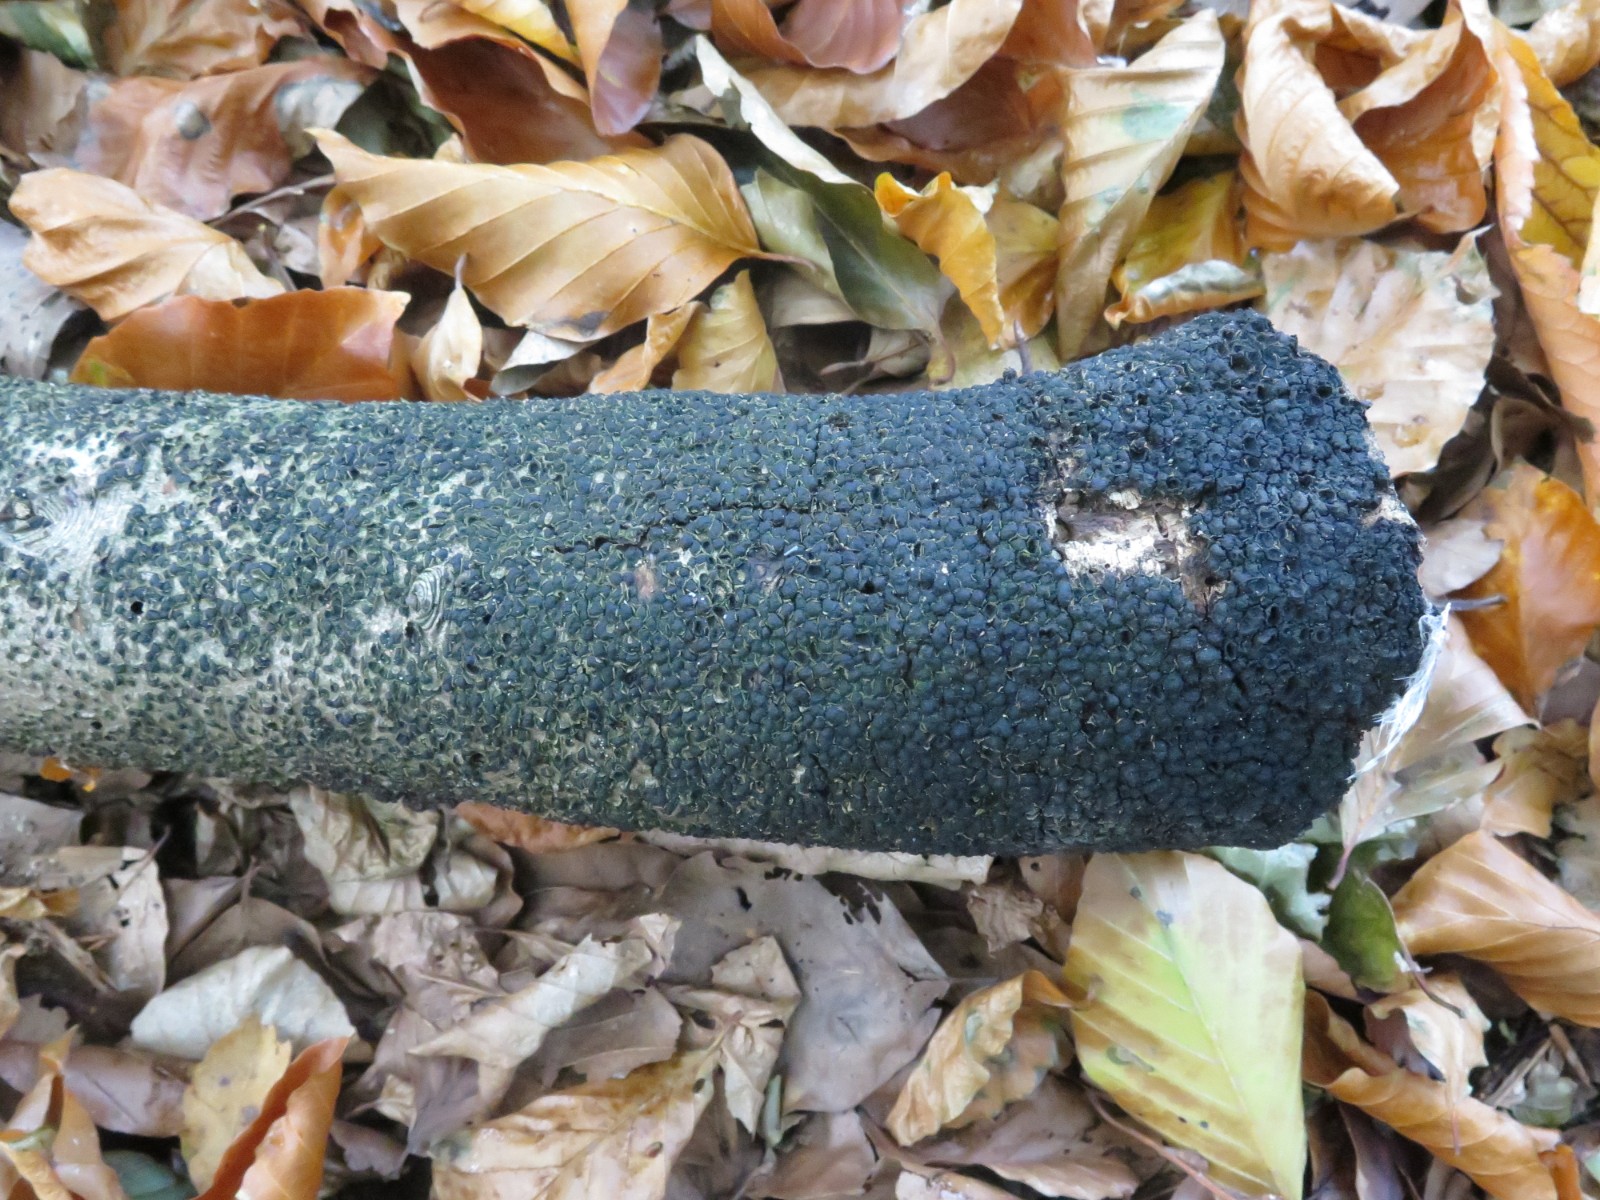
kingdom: Fungi
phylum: Ascomycota
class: Sordariomycetes
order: Xylariales
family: Melogrammataceae
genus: Melogramma
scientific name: Melogramma spiniferum
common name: bøgefod-kulhals
